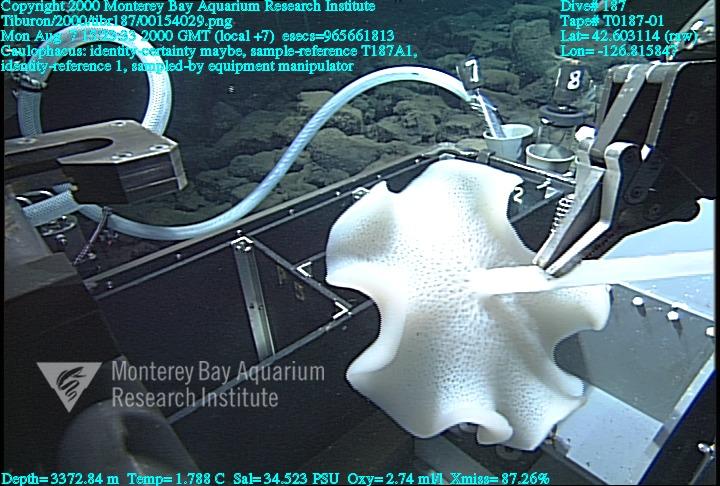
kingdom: Animalia
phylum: Porifera
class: Hexactinellida
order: Lyssacinosida
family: Rossellidae
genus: Caulophacus
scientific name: Caulophacus
